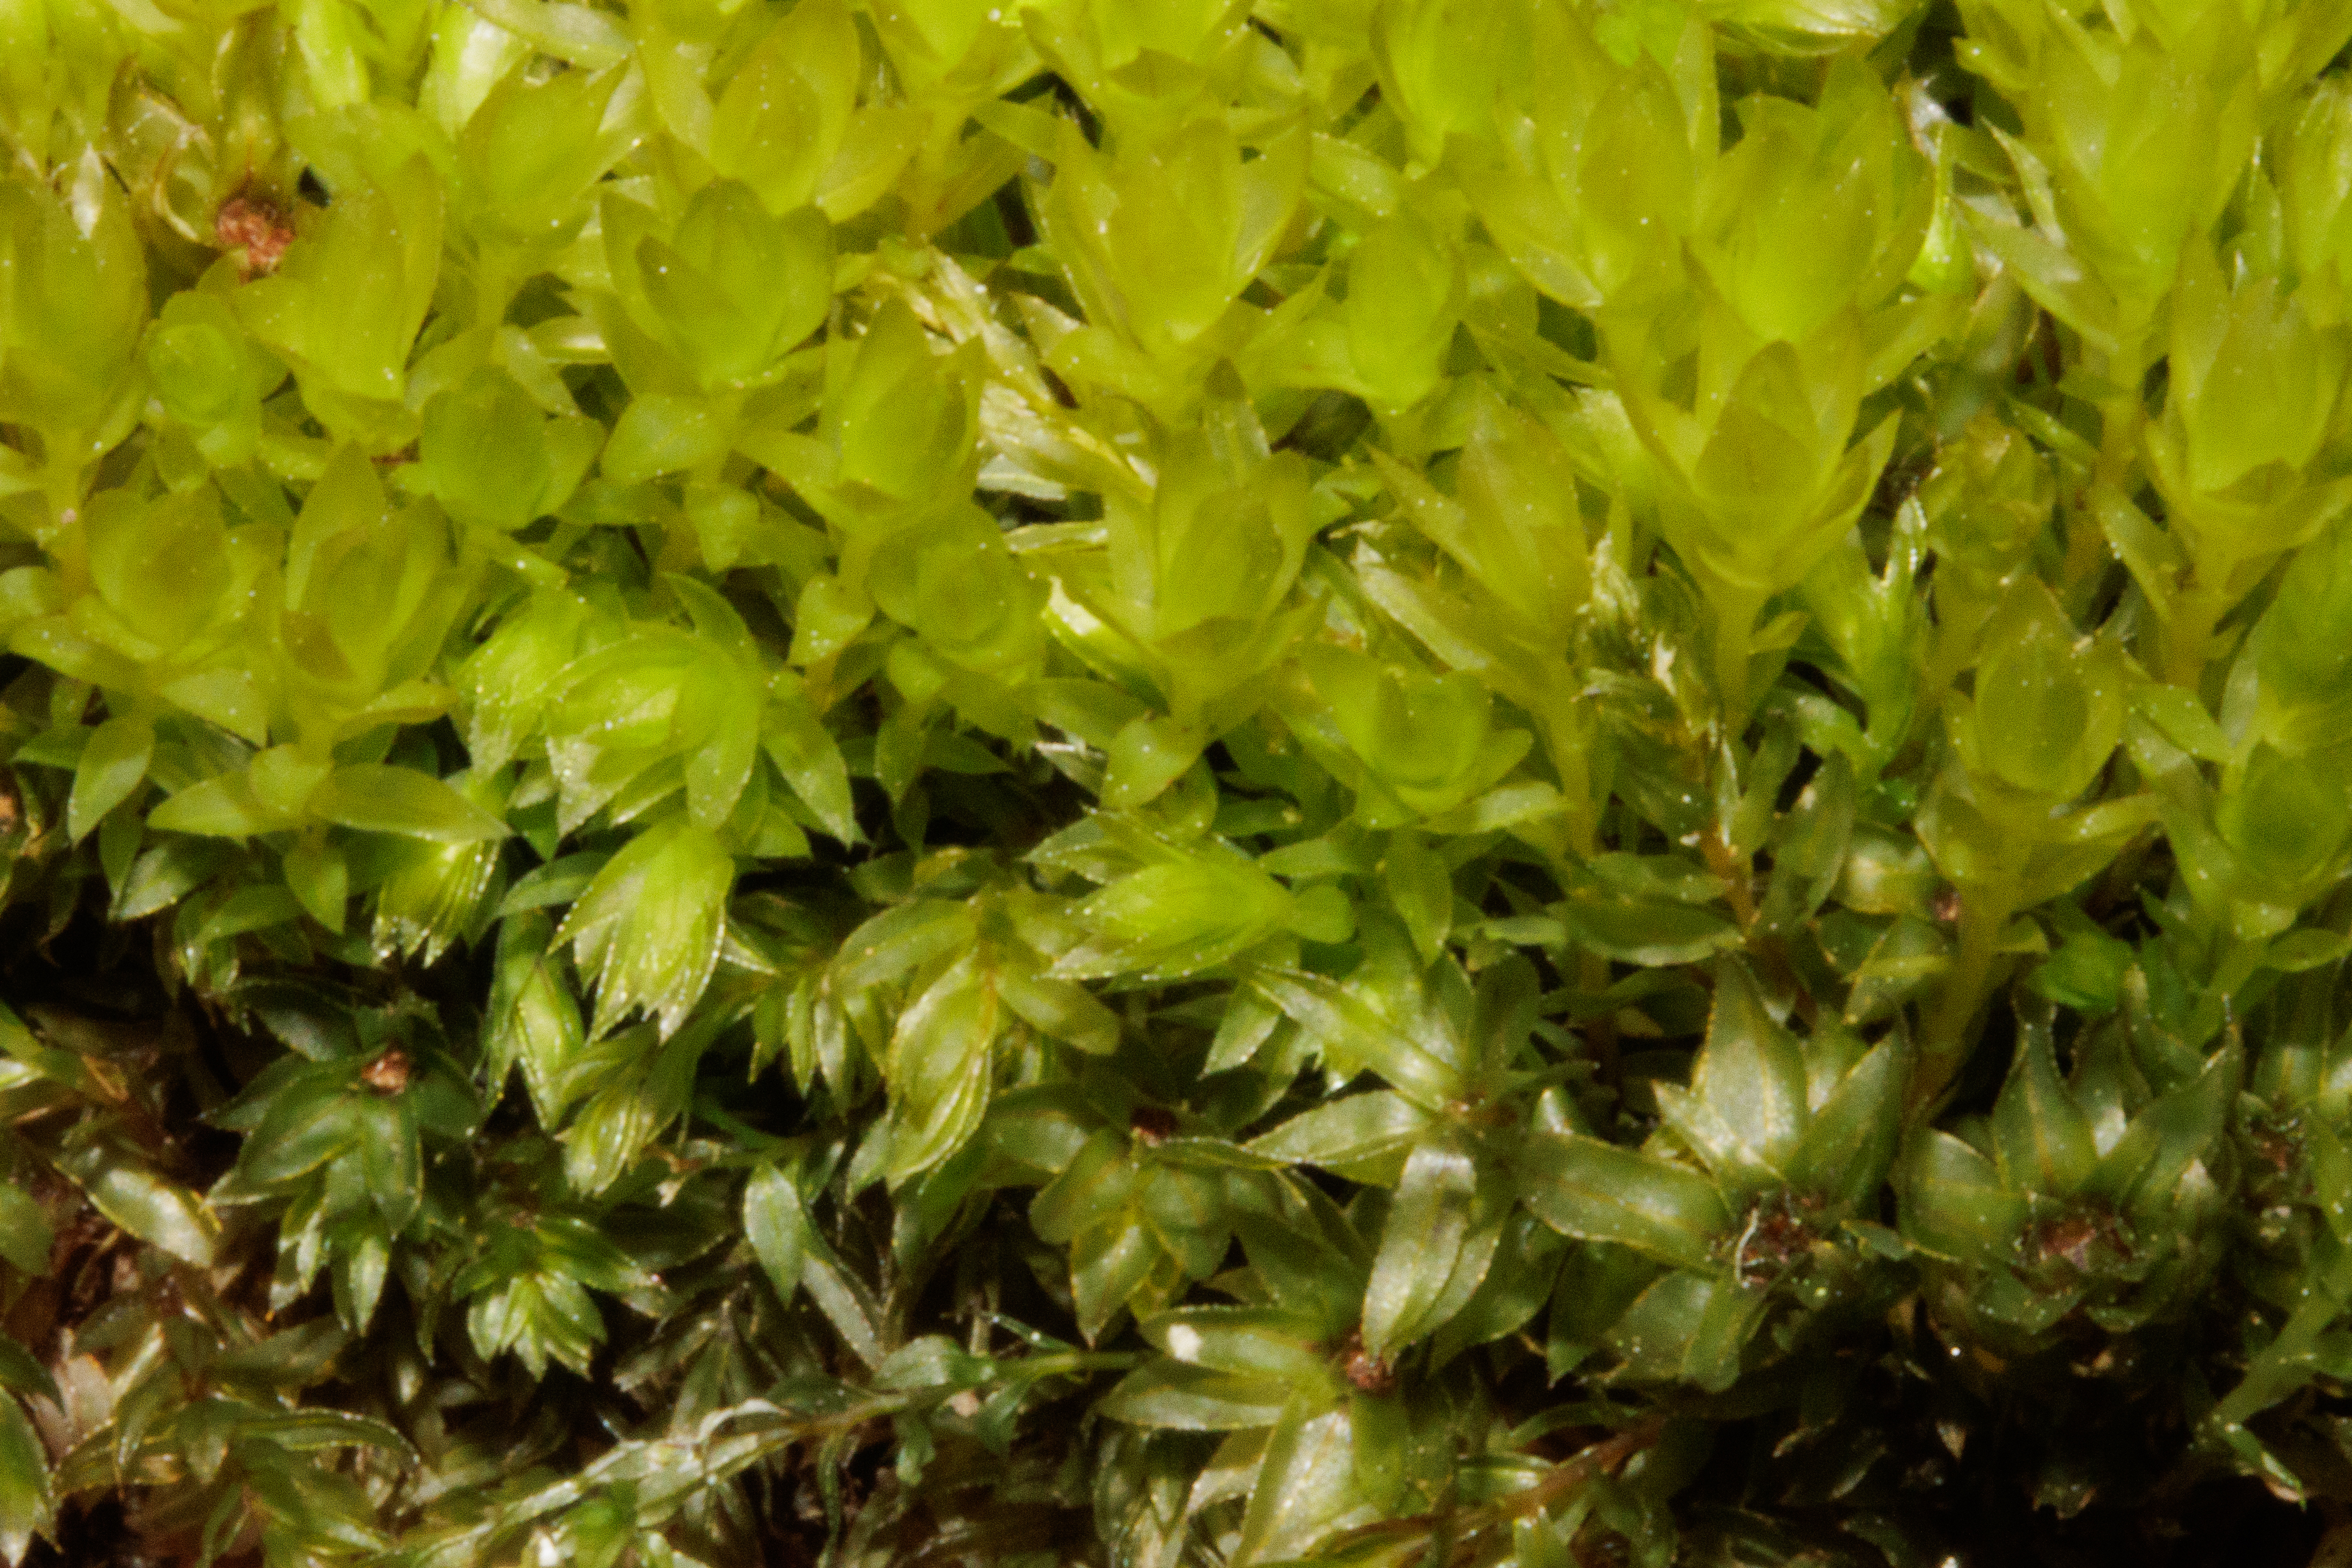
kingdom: Plantae
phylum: Bryophyta
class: Bryopsida
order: Bryales
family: Mniaceae
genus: Mnium
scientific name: Mnium hornum
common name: Brunfiltet stjernemos
